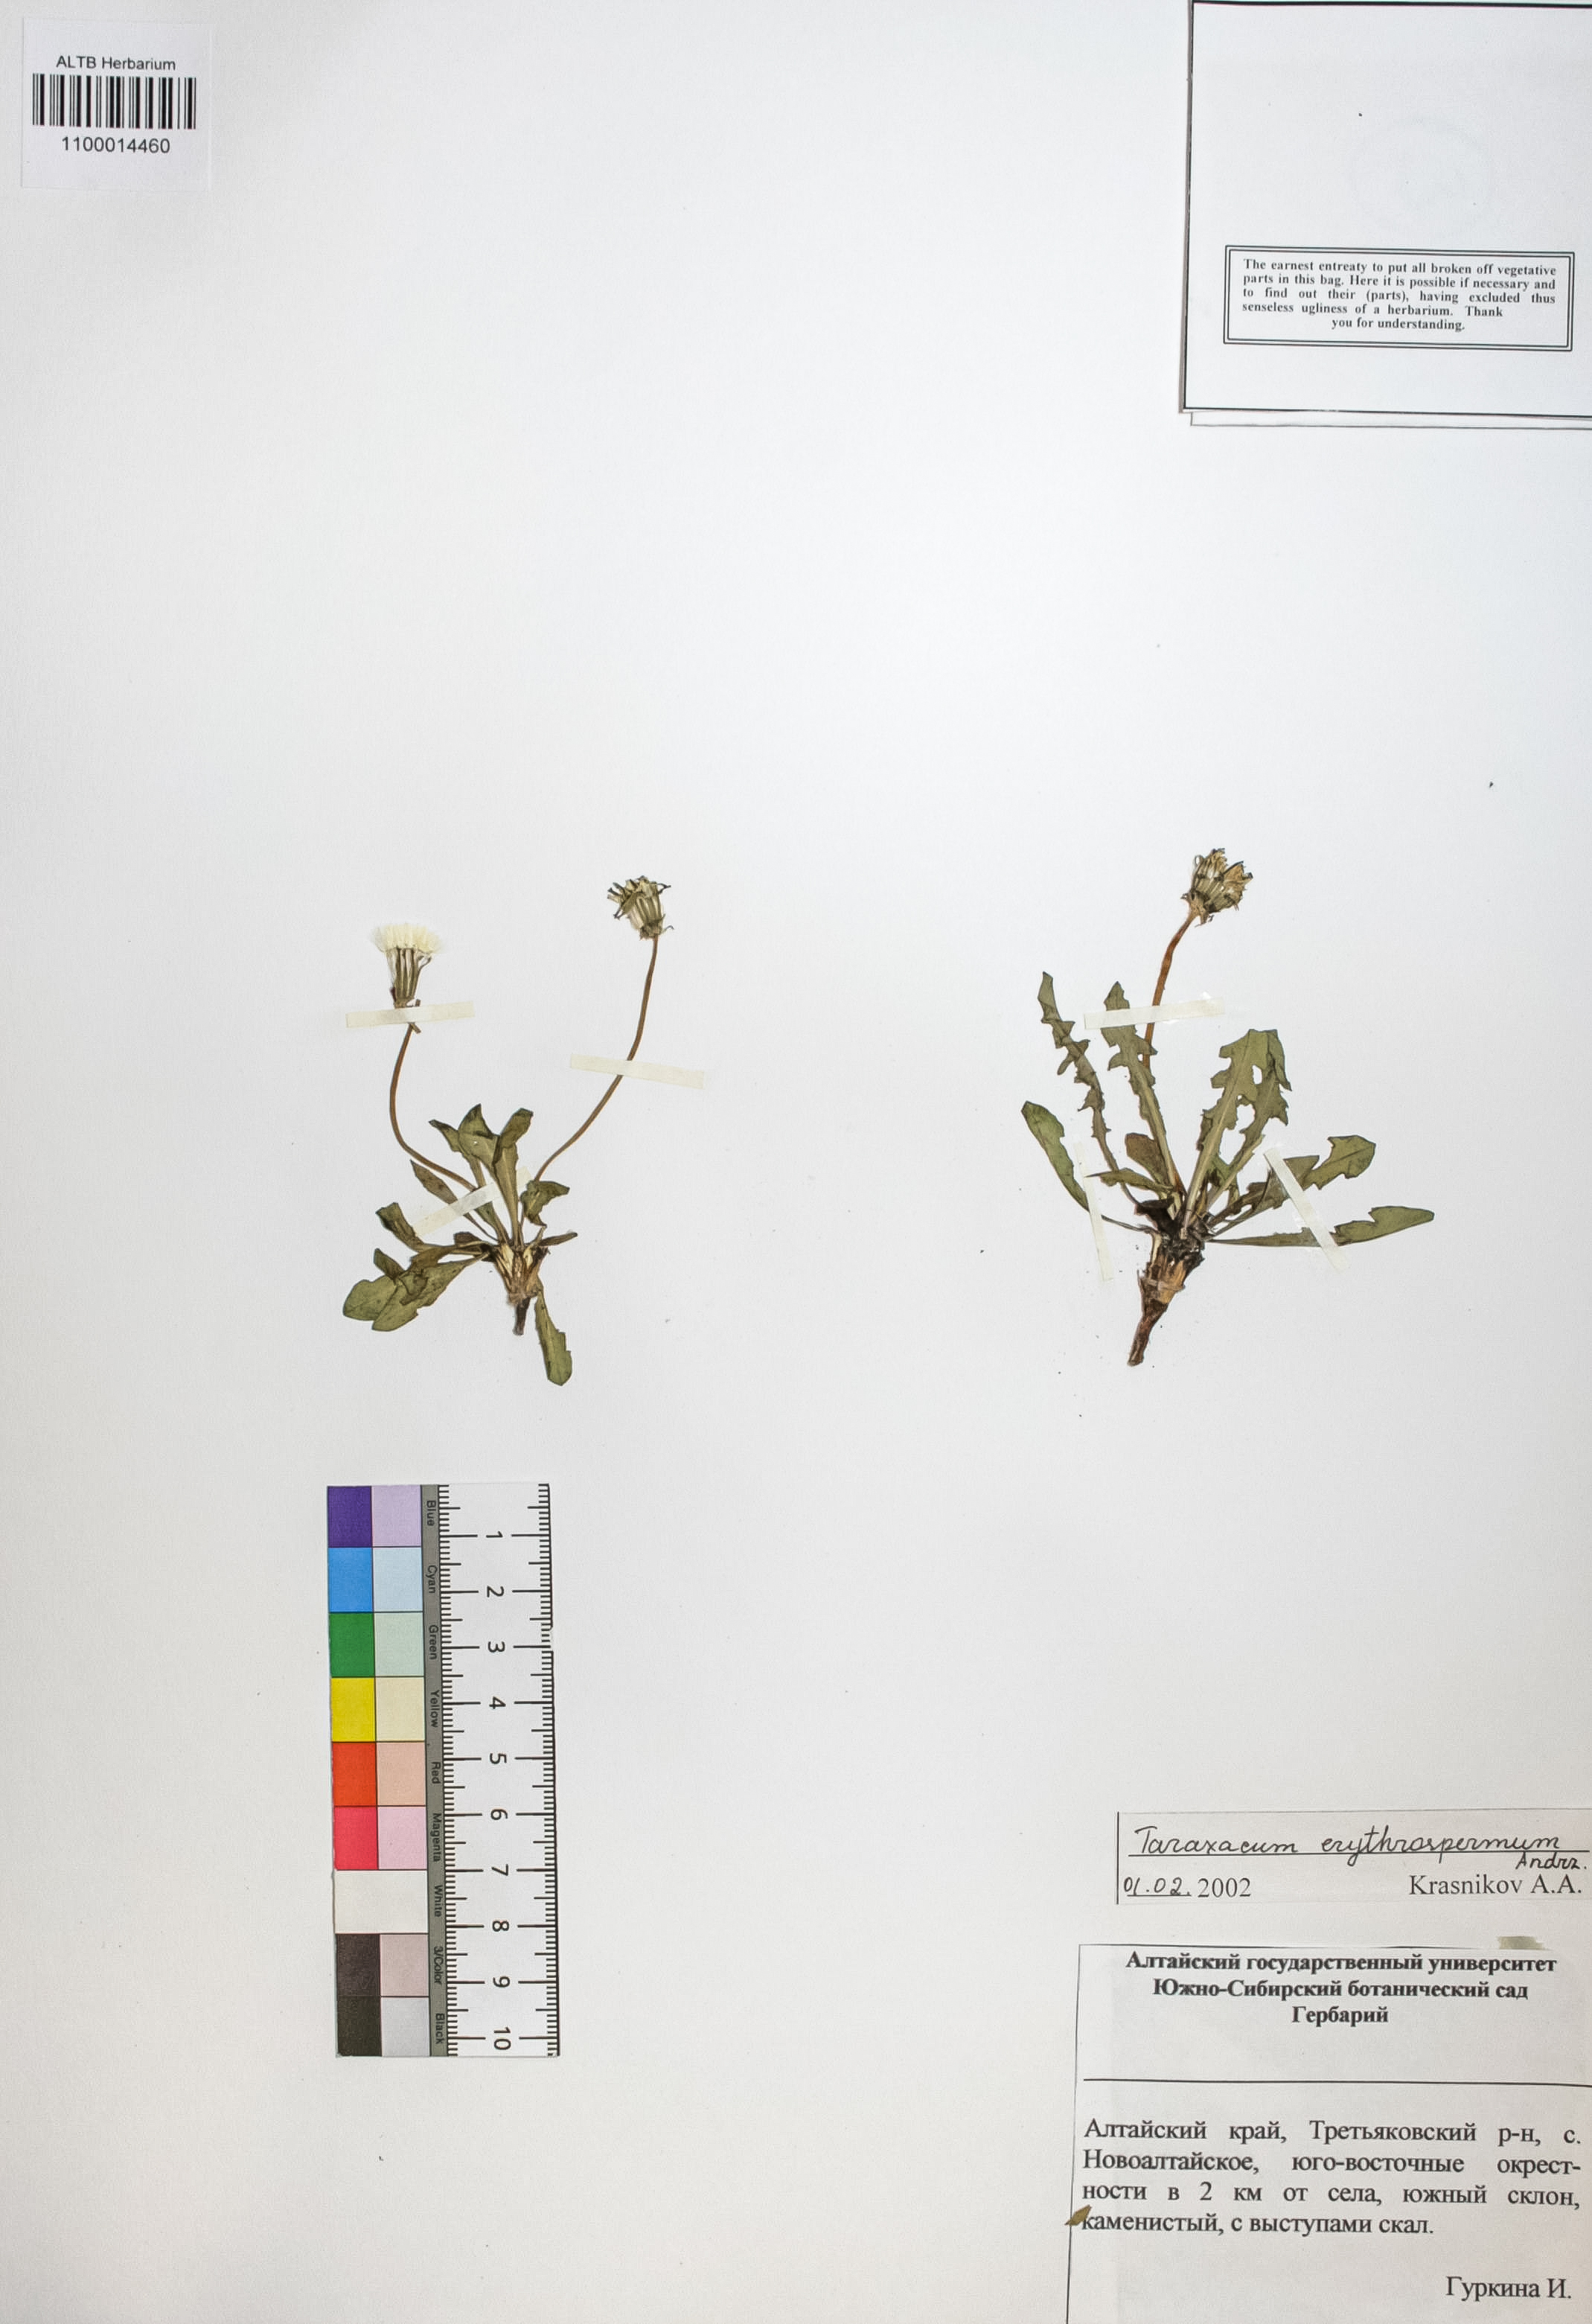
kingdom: Plantae
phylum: Tracheophyta
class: Magnoliopsida
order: Asterales
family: Asteraceae
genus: Taraxacum
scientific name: Taraxacum erythrospermum
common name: Rock dandelion
